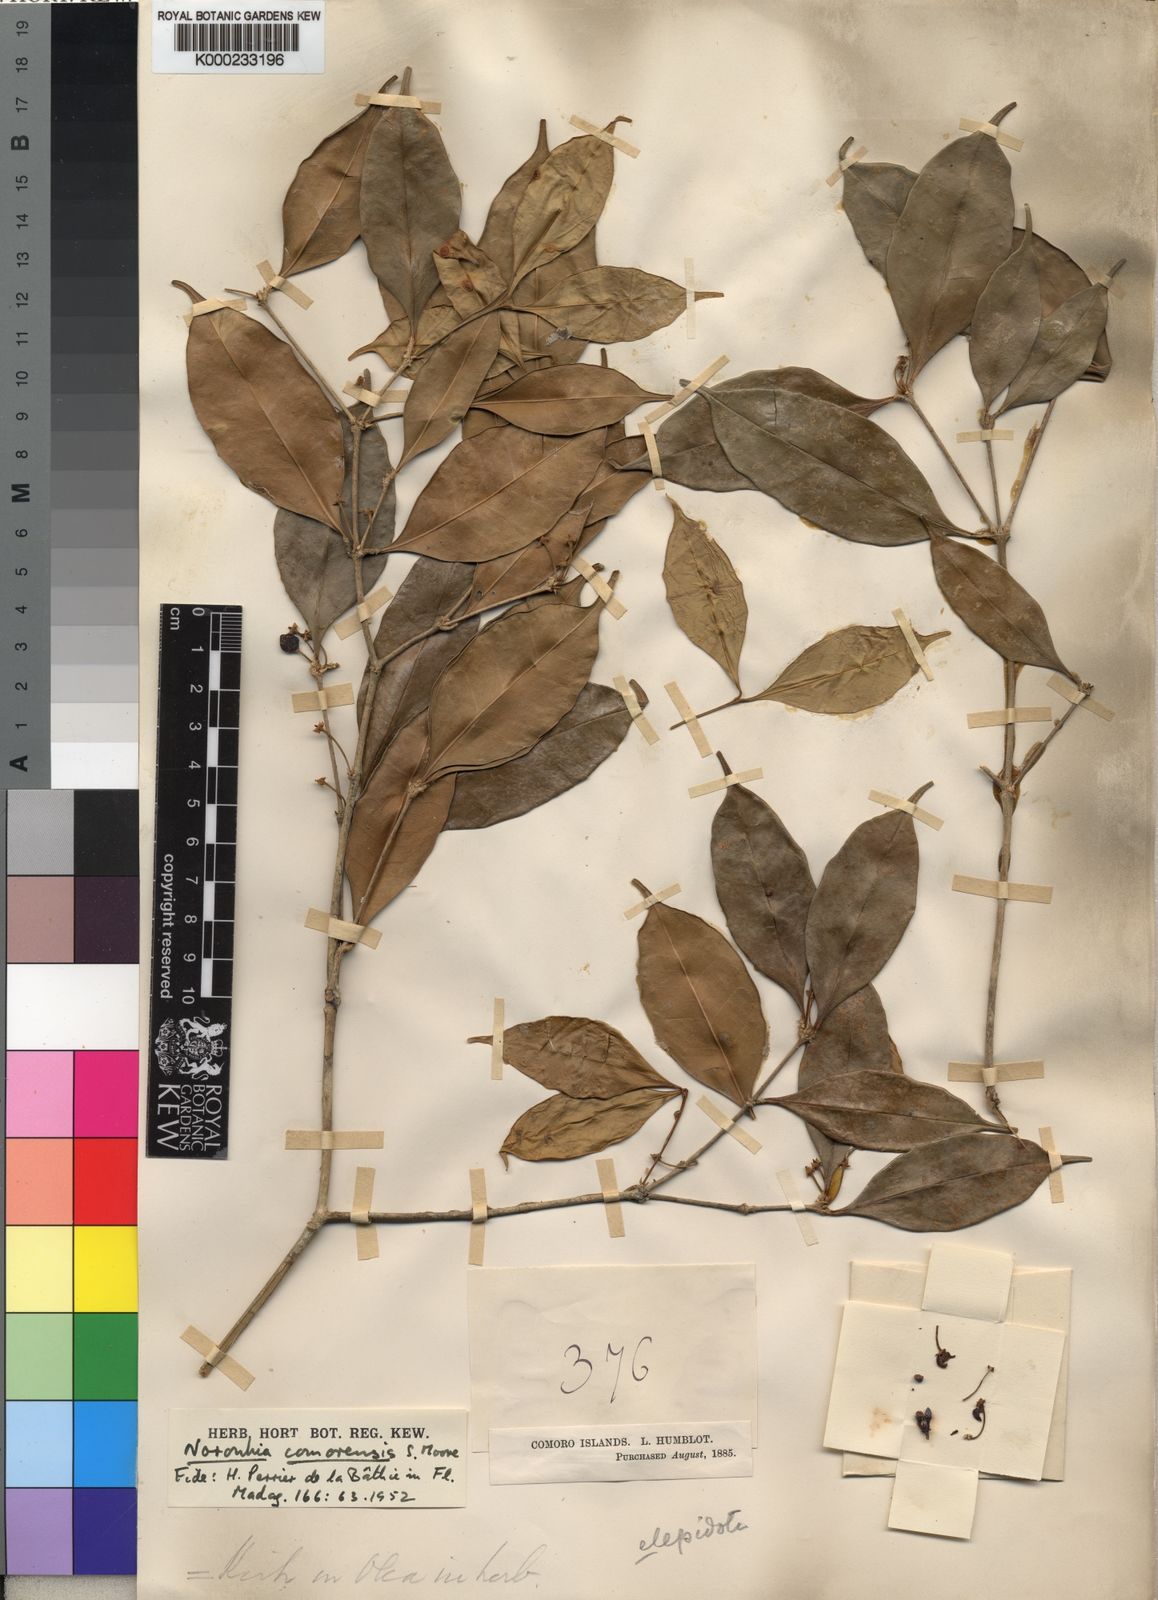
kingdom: Plantae
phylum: Tracheophyta
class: Magnoliopsida
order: Lamiales
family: Oleaceae
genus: Noronhia
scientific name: Noronhia comorensis
